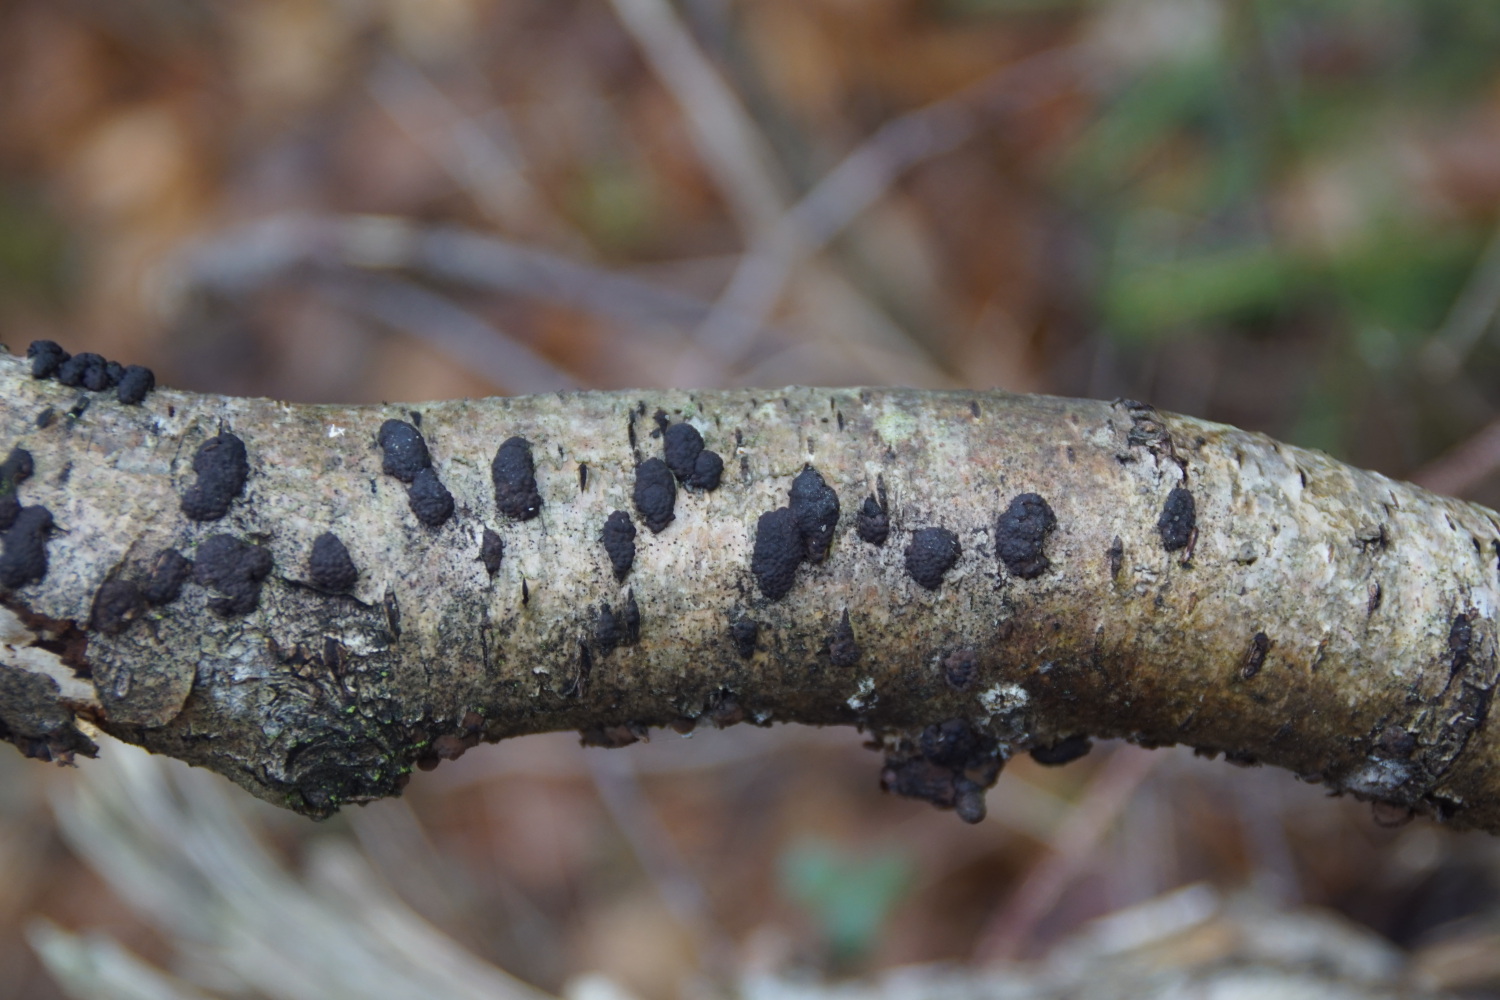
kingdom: Fungi
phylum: Ascomycota
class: Sordariomycetes
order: Xylariales
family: Hypoxylaceae
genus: Jackrogersella
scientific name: Jackrogersella multiformis
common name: foranderlig kulbær
